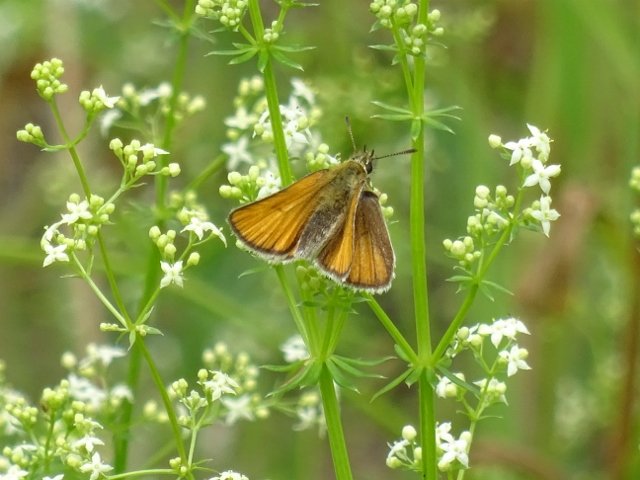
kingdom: Animalia
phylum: Arthropoda
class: Insecta
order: Lepidoptera
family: Hesperiidae
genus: Thymelicus
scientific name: Thymelicus lineola
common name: European Skipper
